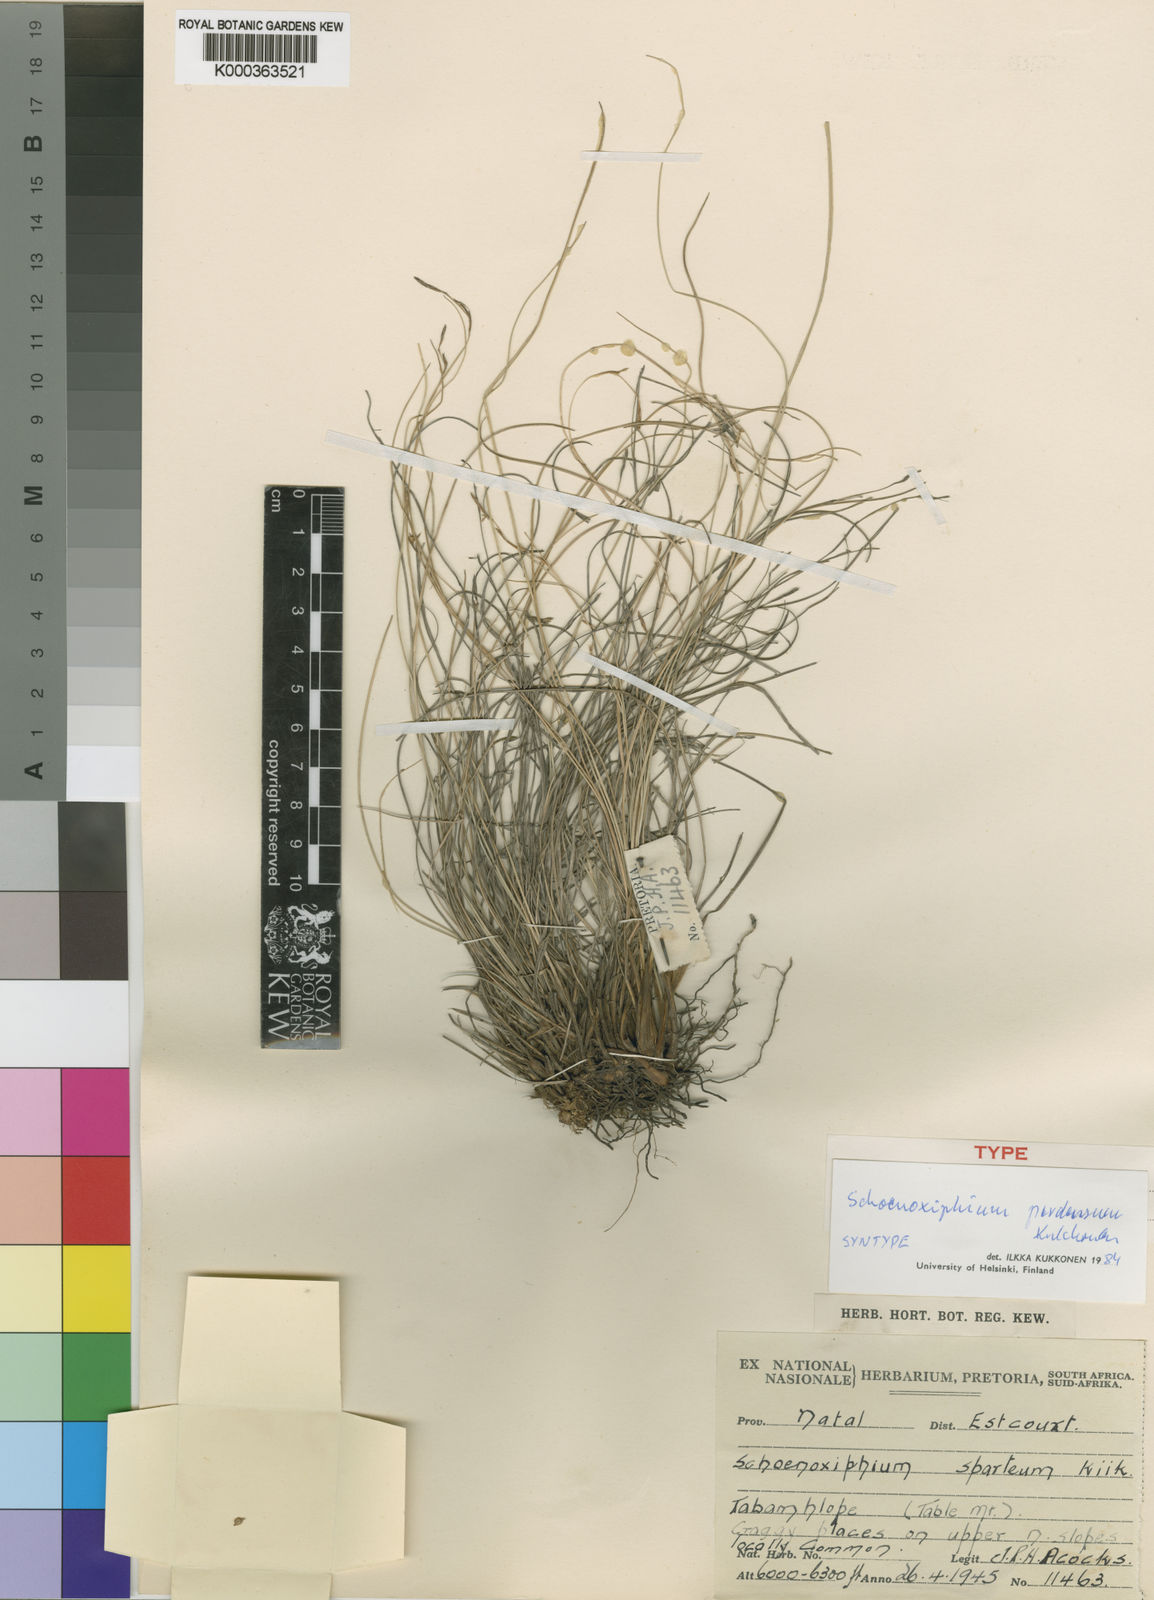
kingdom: Plantae
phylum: Tracheophyta
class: Liliopsida
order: Poales
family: Cyperaceae
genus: Carex
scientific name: Carex perdensa
